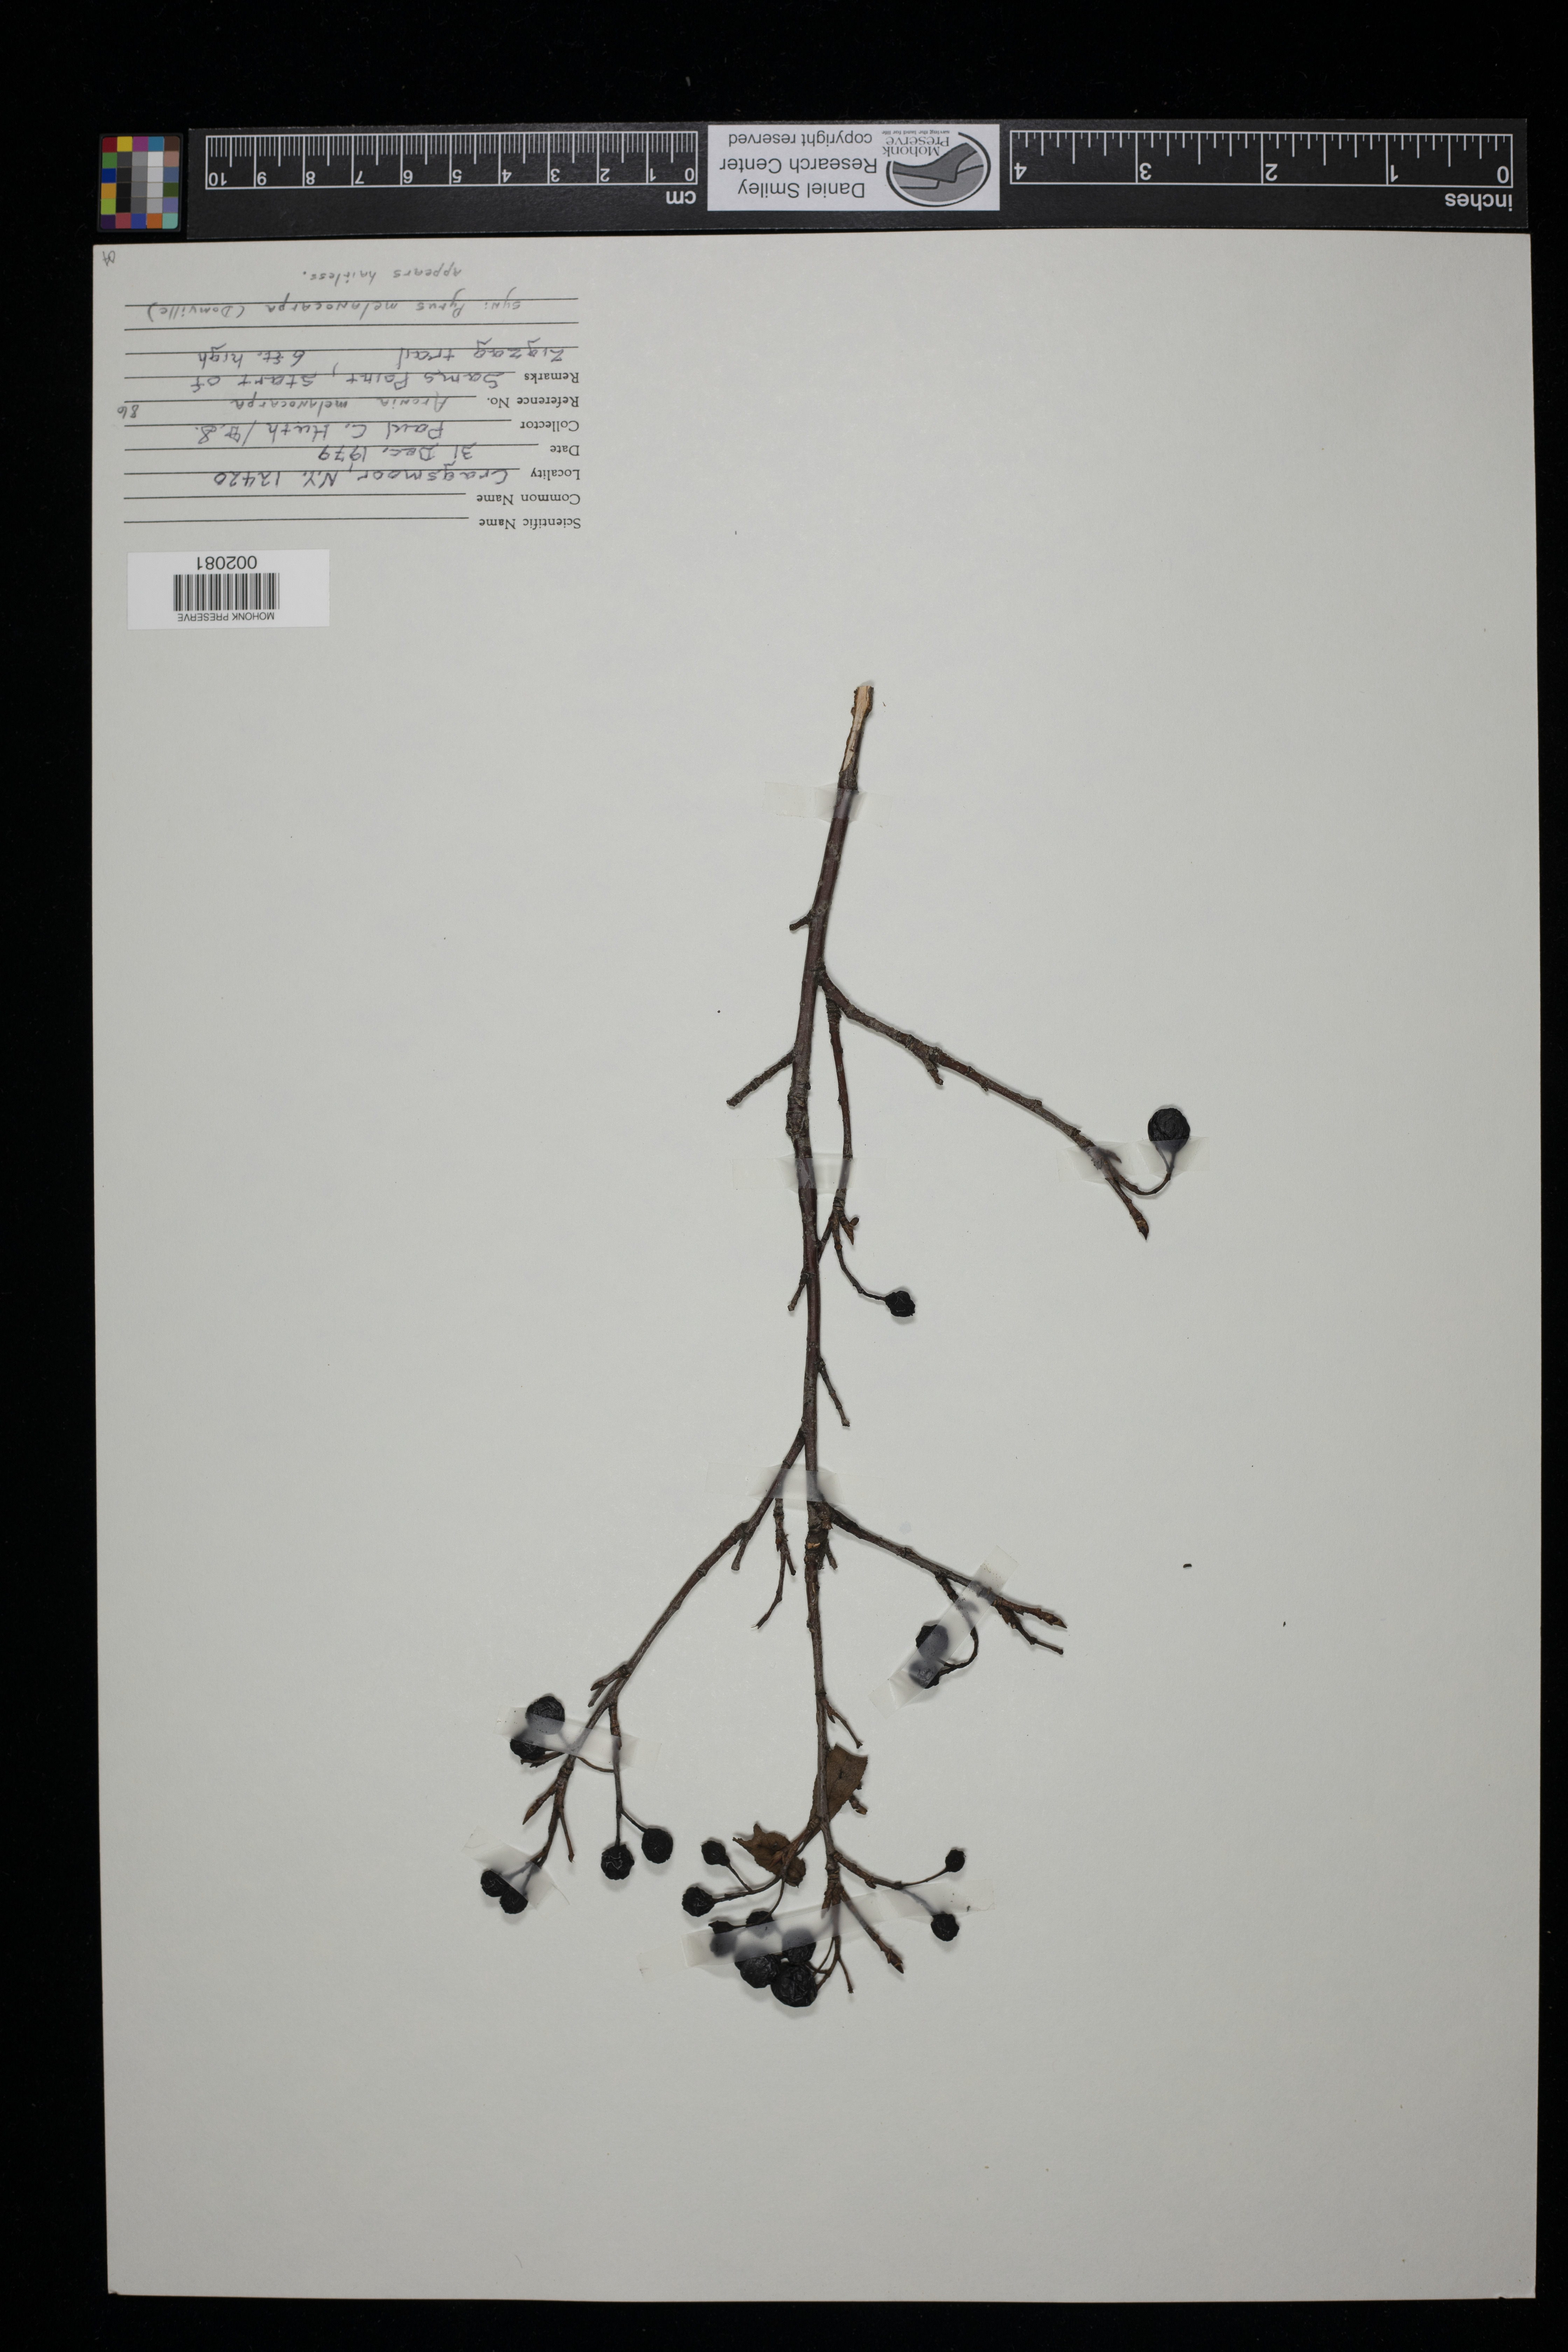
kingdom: Plantae
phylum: Tracheophyta
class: Magnoliopsida
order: Rosales
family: Rosaceae
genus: Aronia
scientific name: Aronia melanocarpa
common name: Black chokeberry
